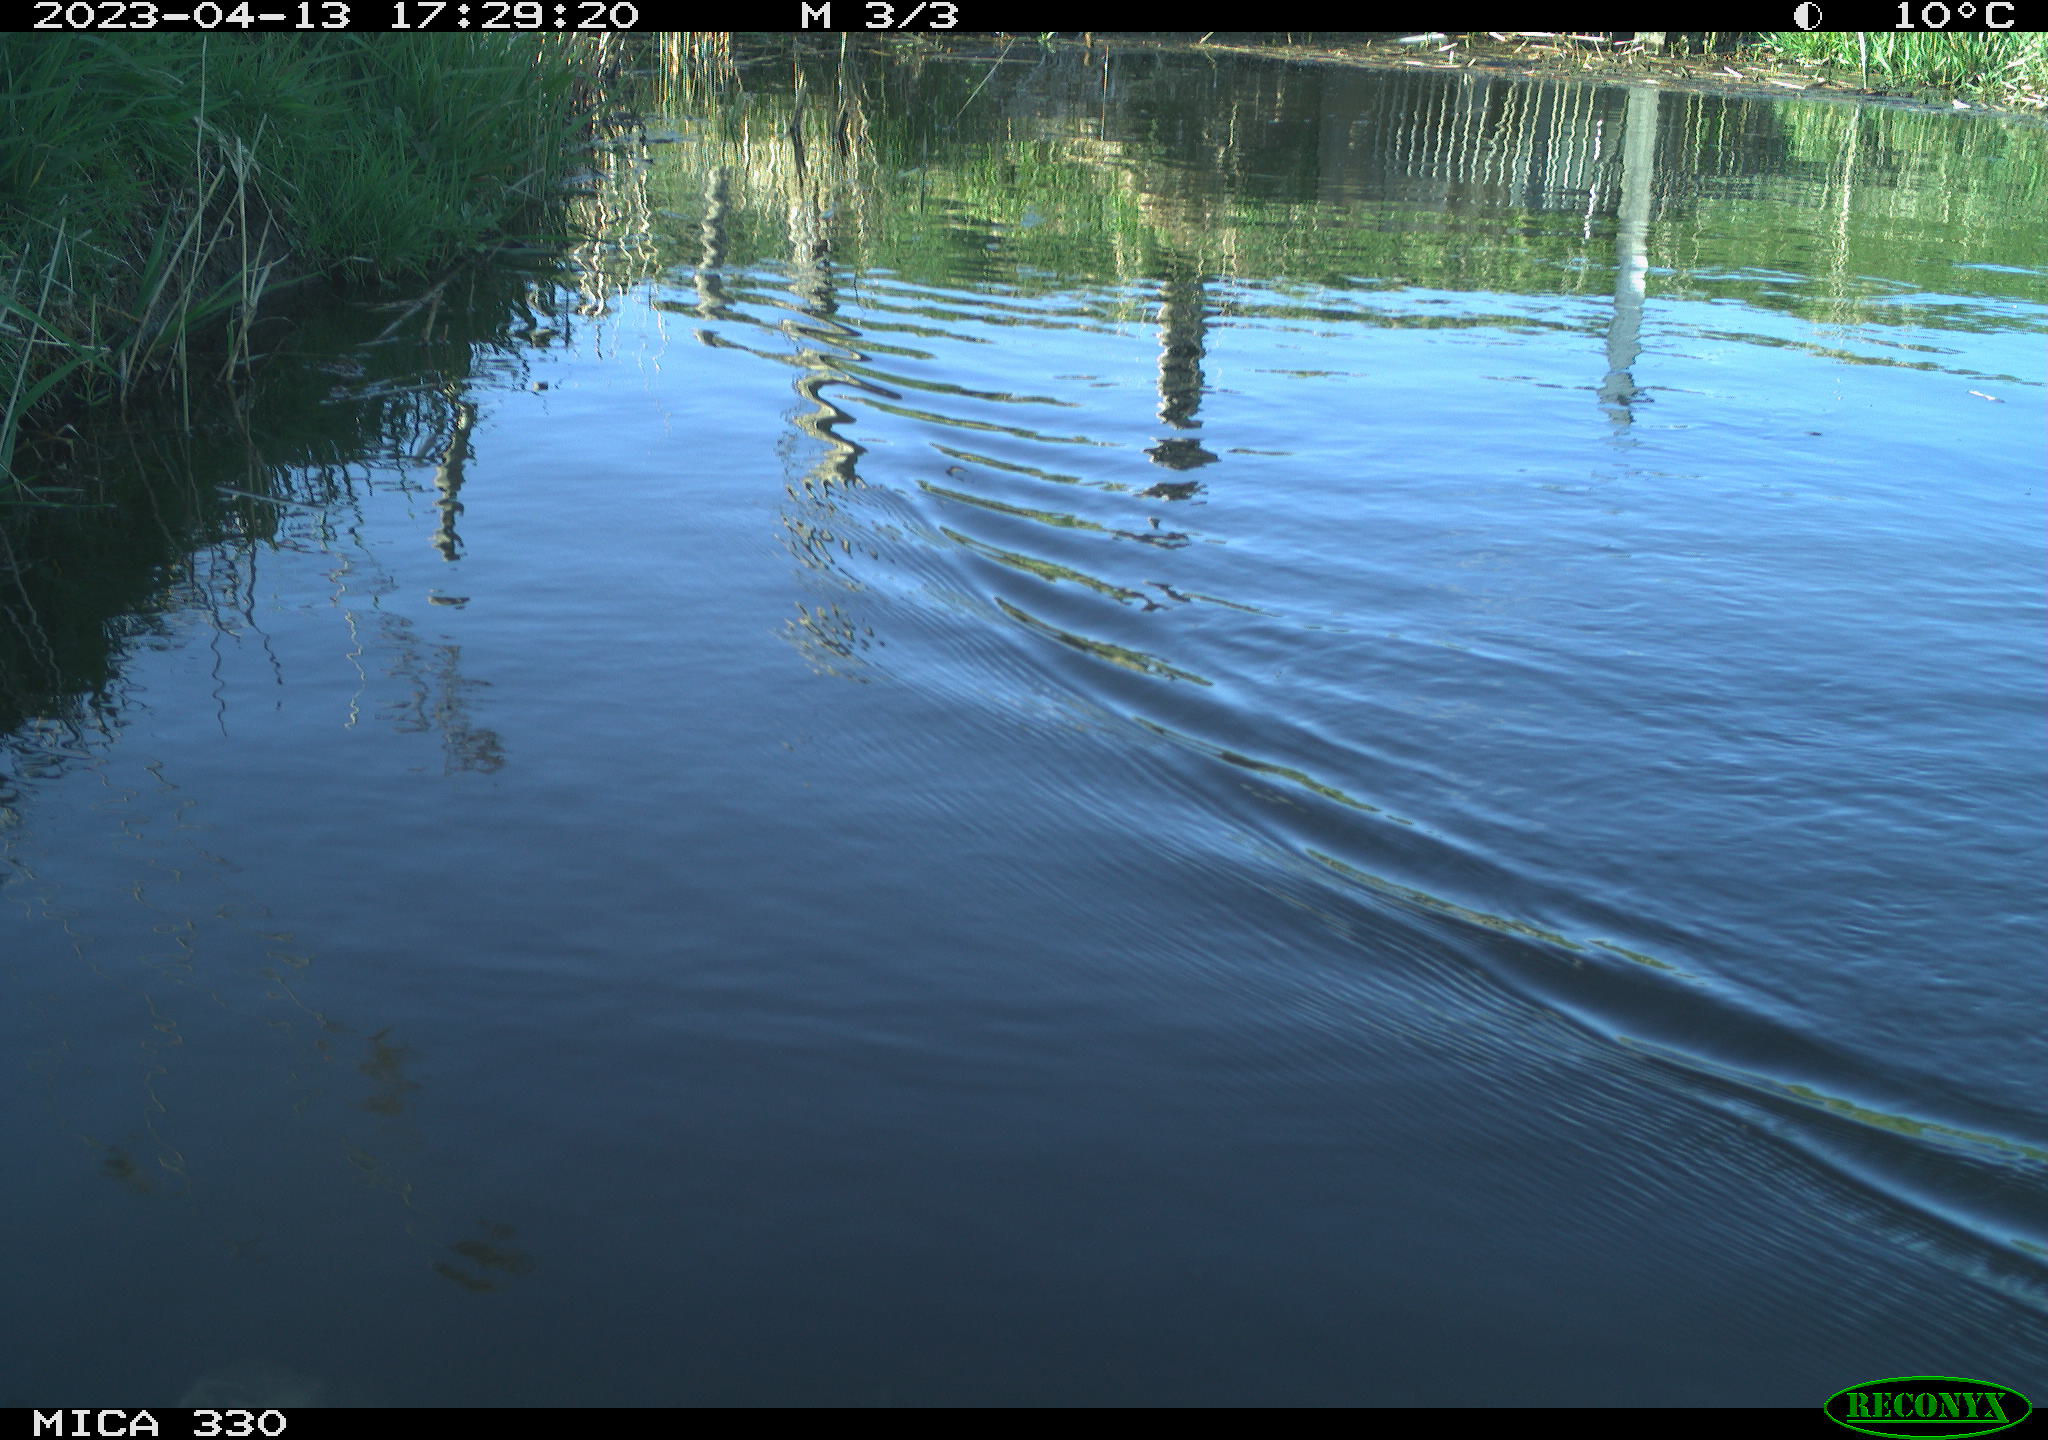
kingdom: Animalia
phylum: Chordata
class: Aves
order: Anseriformes
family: Anatidae
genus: Anas
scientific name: Anas
